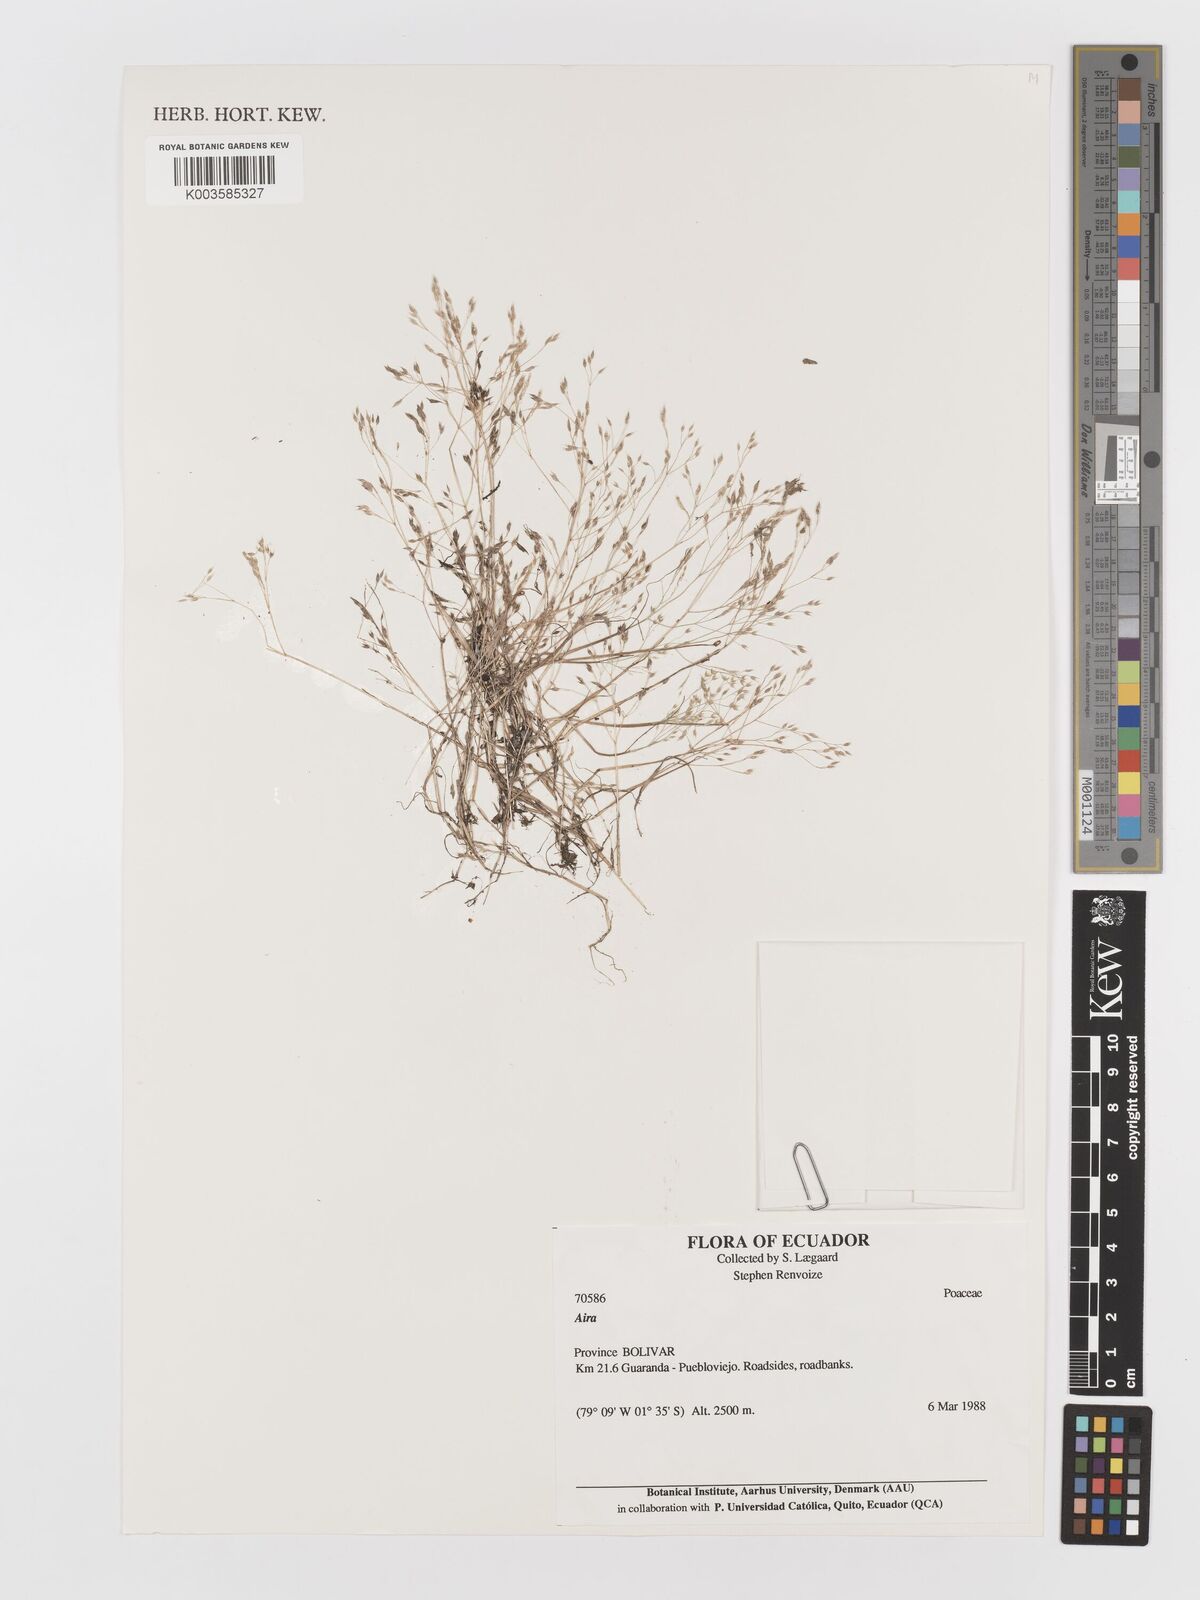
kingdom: Plantae
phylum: Tracheophyta
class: Liliopsida
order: Poales
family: Poaceae
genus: Aira
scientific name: Aira caryophyllea
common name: Silver hairgrass
